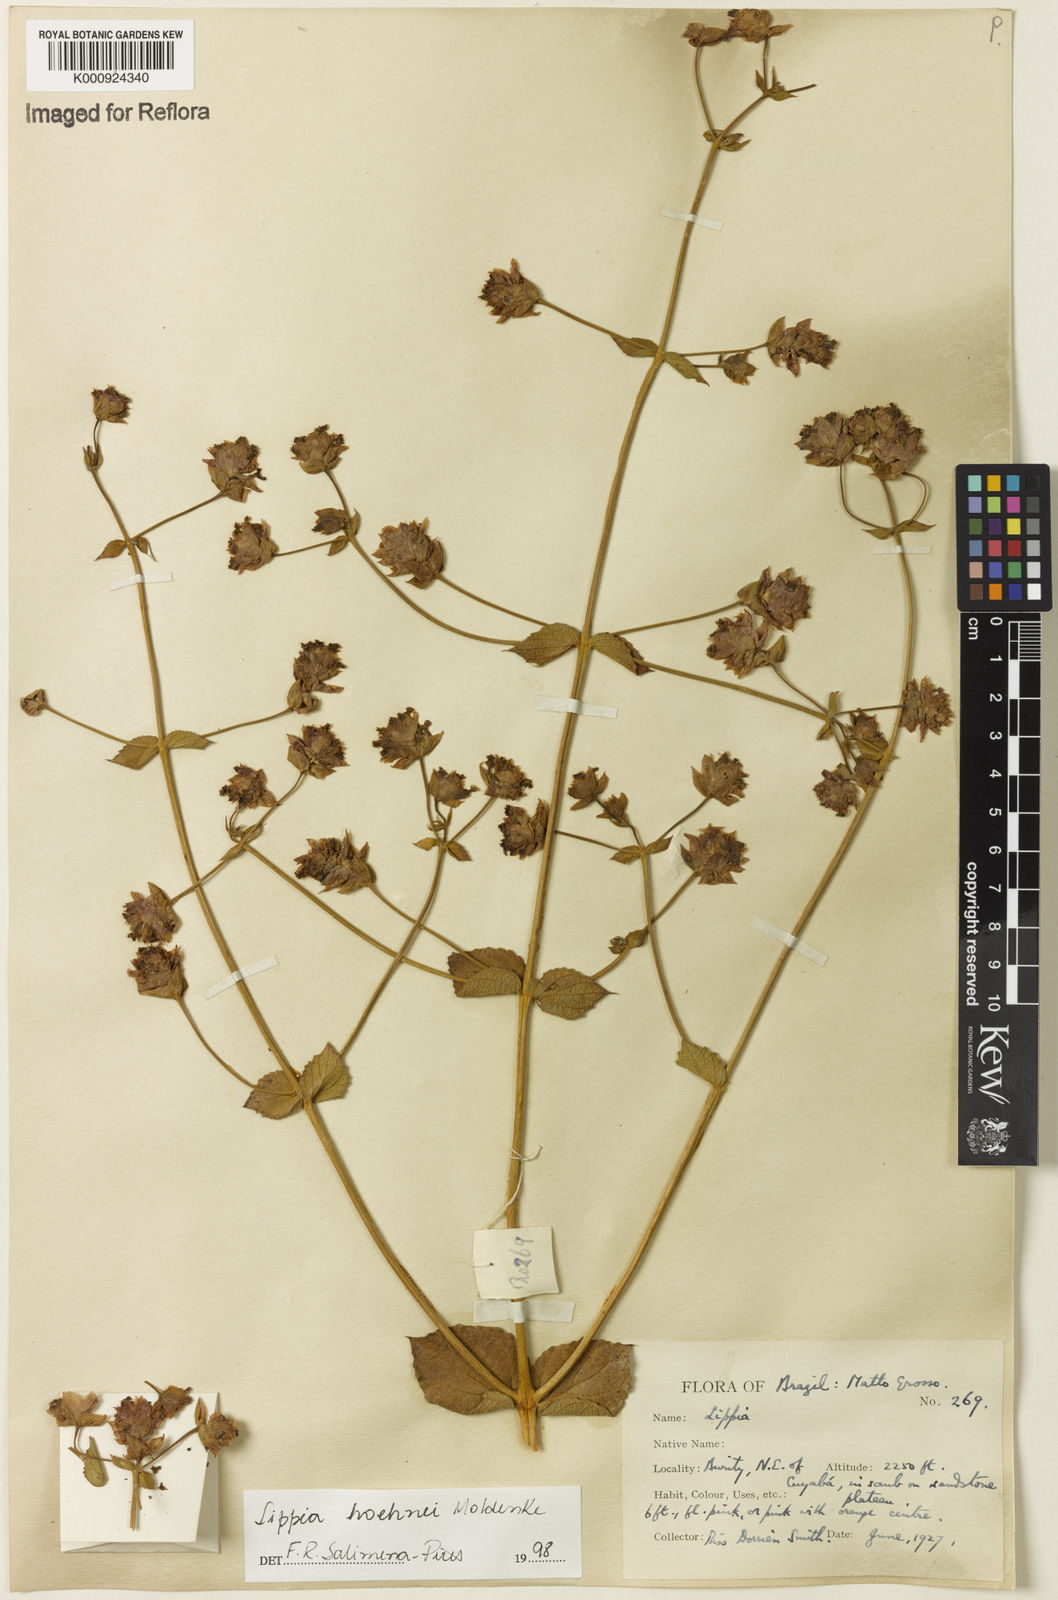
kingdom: Plantae
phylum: Tracheophyta
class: Magnoliopsida
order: Lamiales
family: Verbenaceae
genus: Lippia
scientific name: Lippia hoehnei
